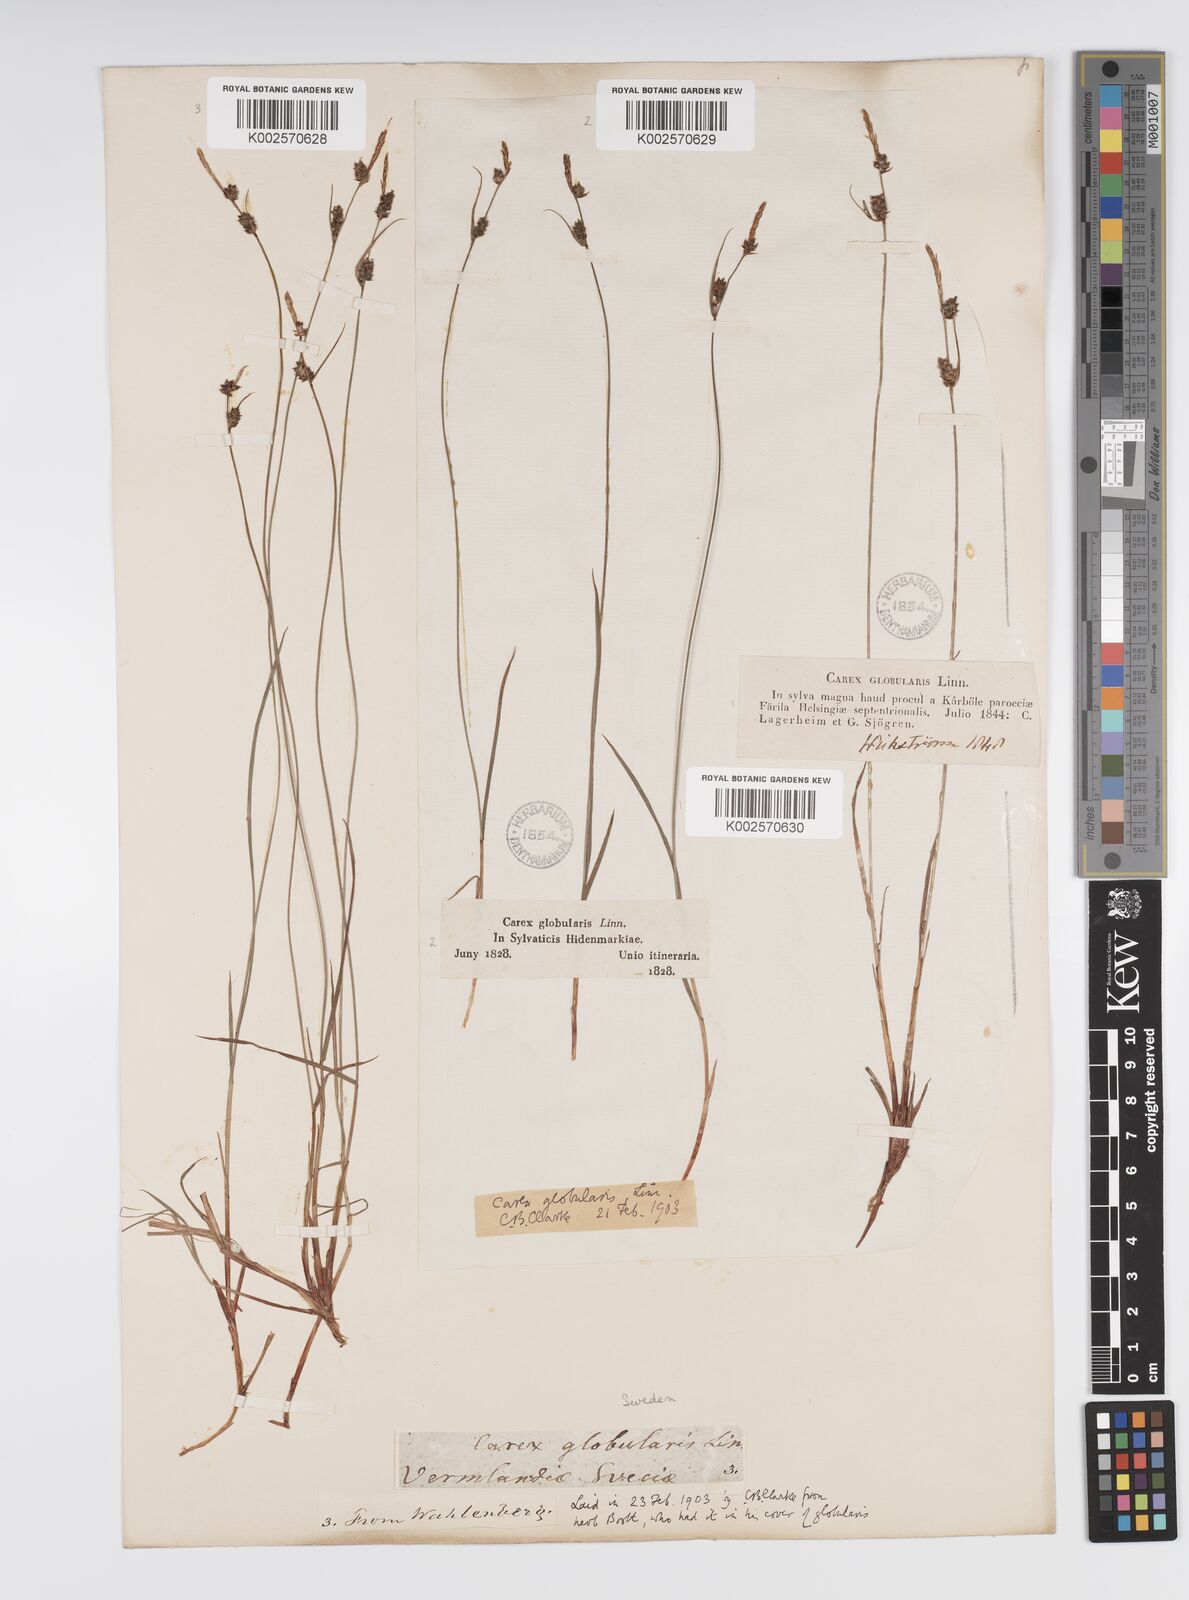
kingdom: Plantae
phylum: Tracheophyta
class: Liliopsida
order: Poales
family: Cyperaceae
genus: Carex
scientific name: Carex globularis
